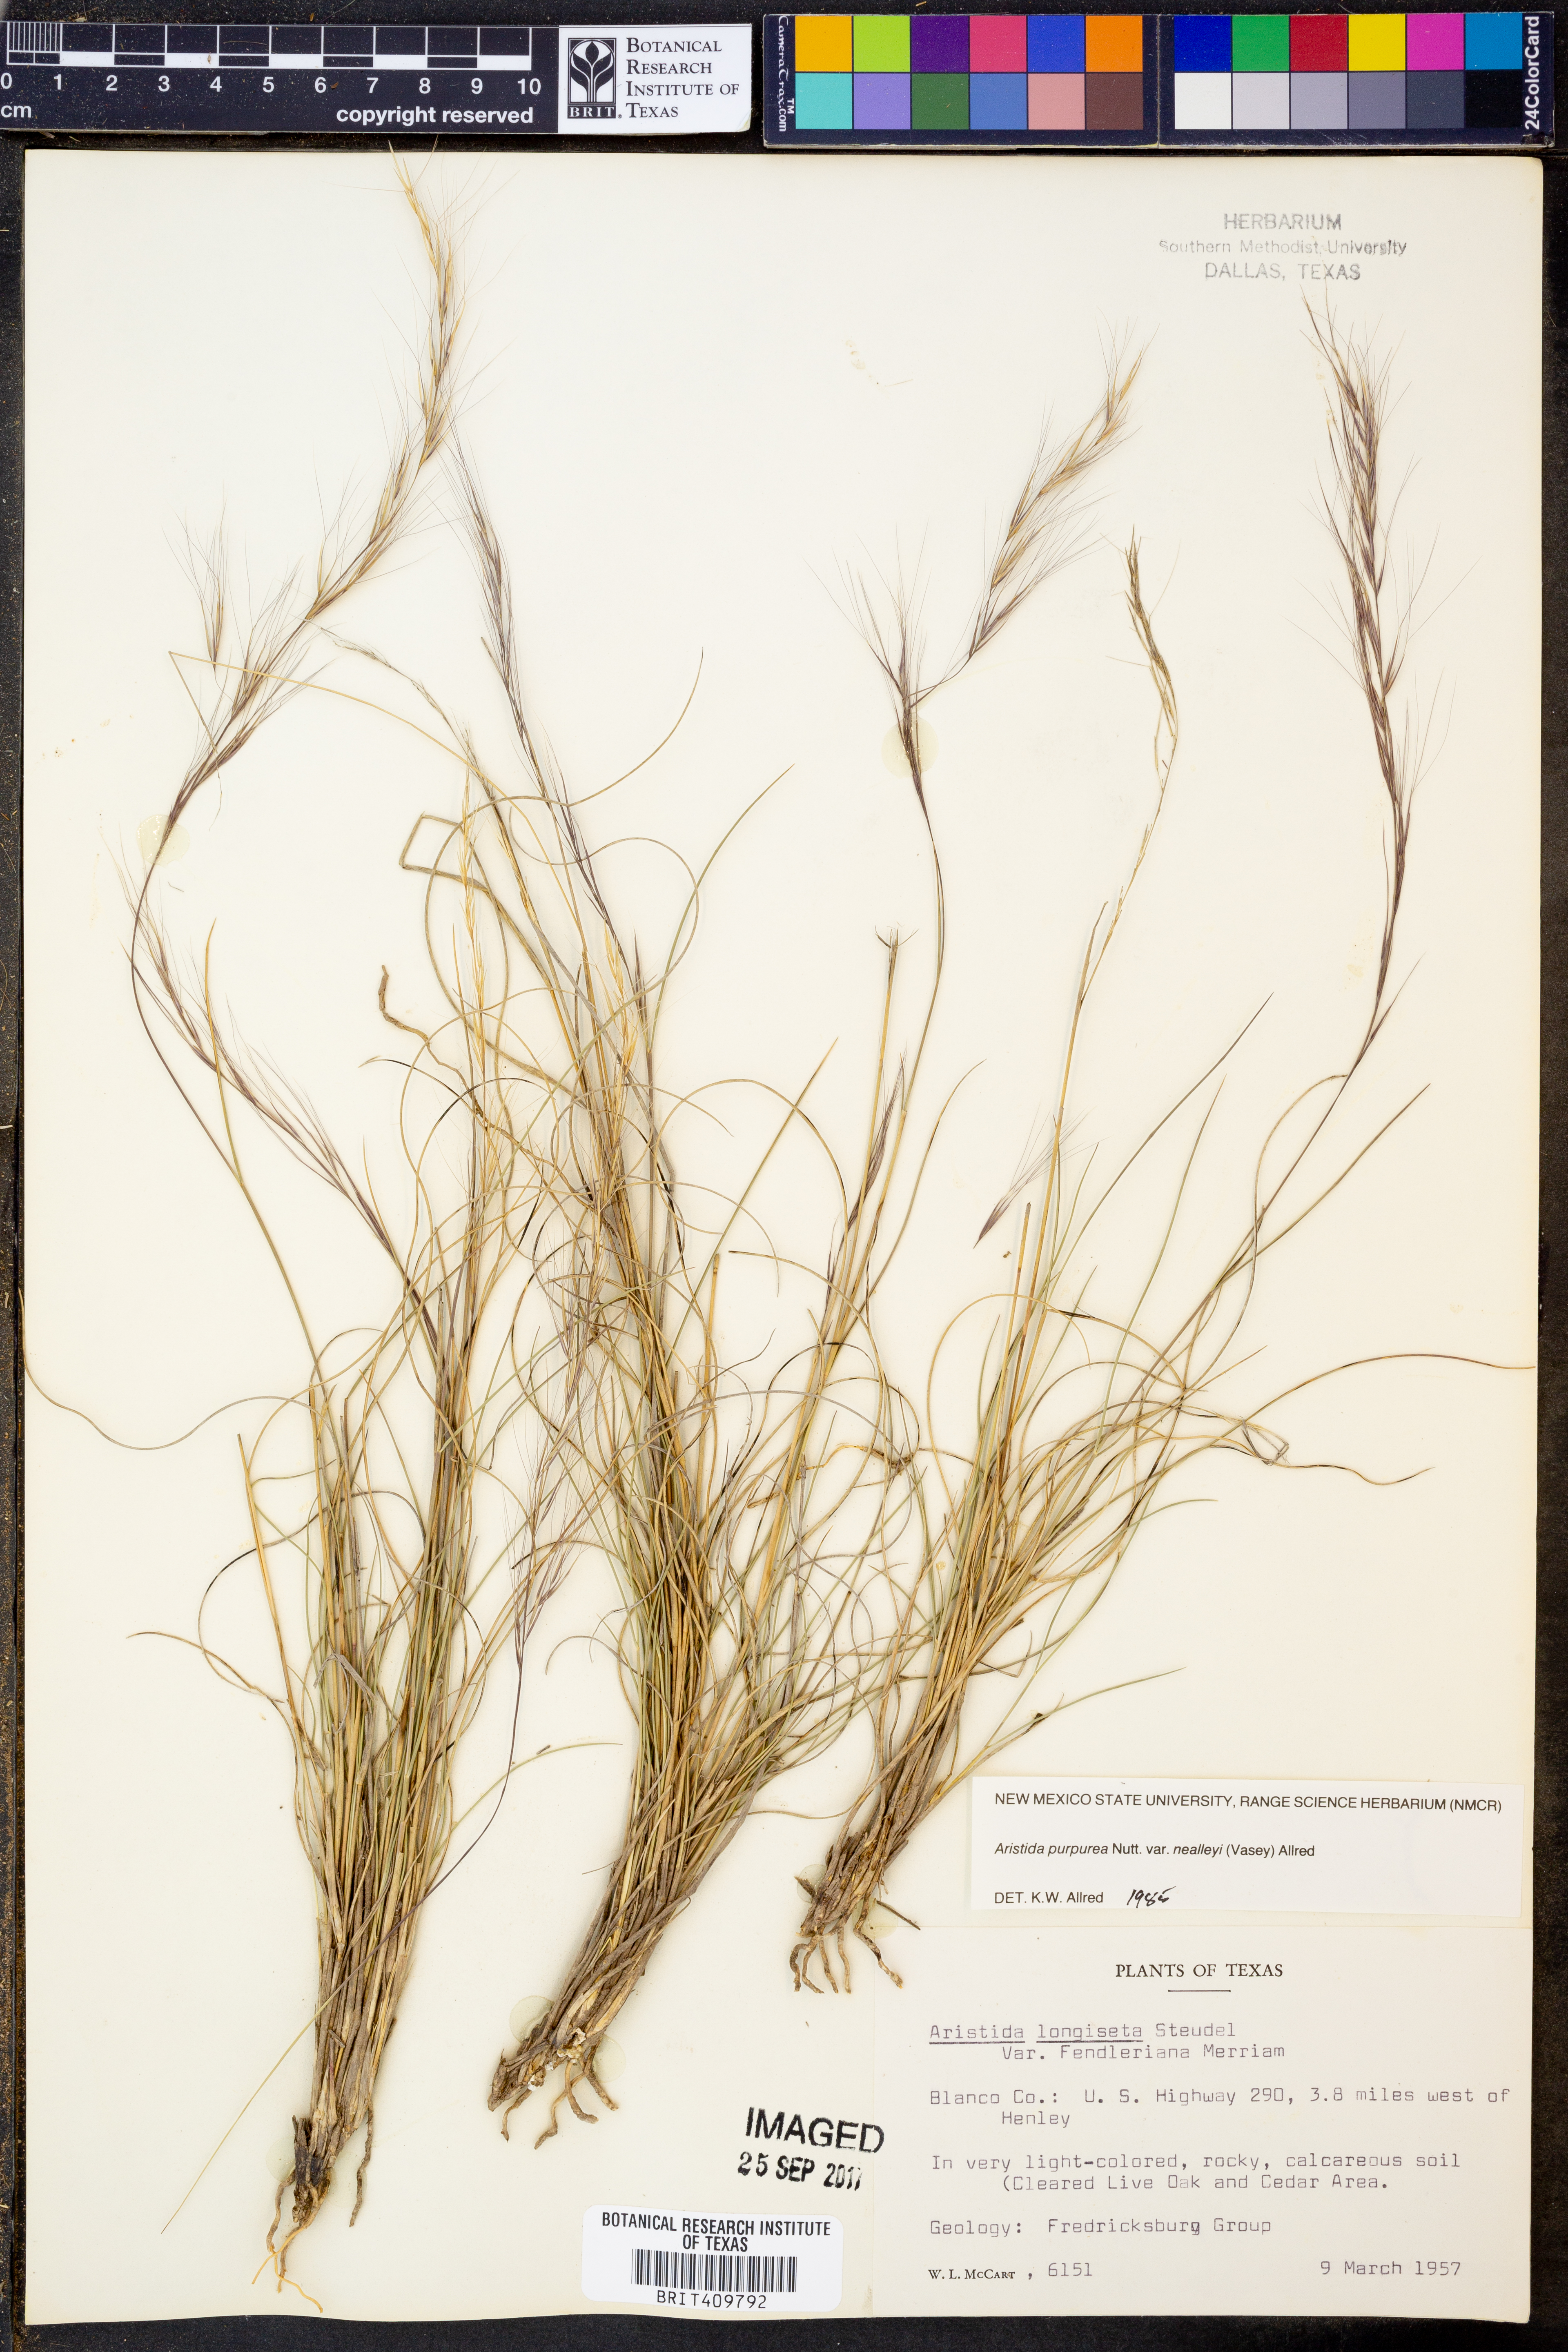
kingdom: Plantae
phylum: Tracheophyta
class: Liliopsida
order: Poales
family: Poaceae
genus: Aristida
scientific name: Aristida glauca
